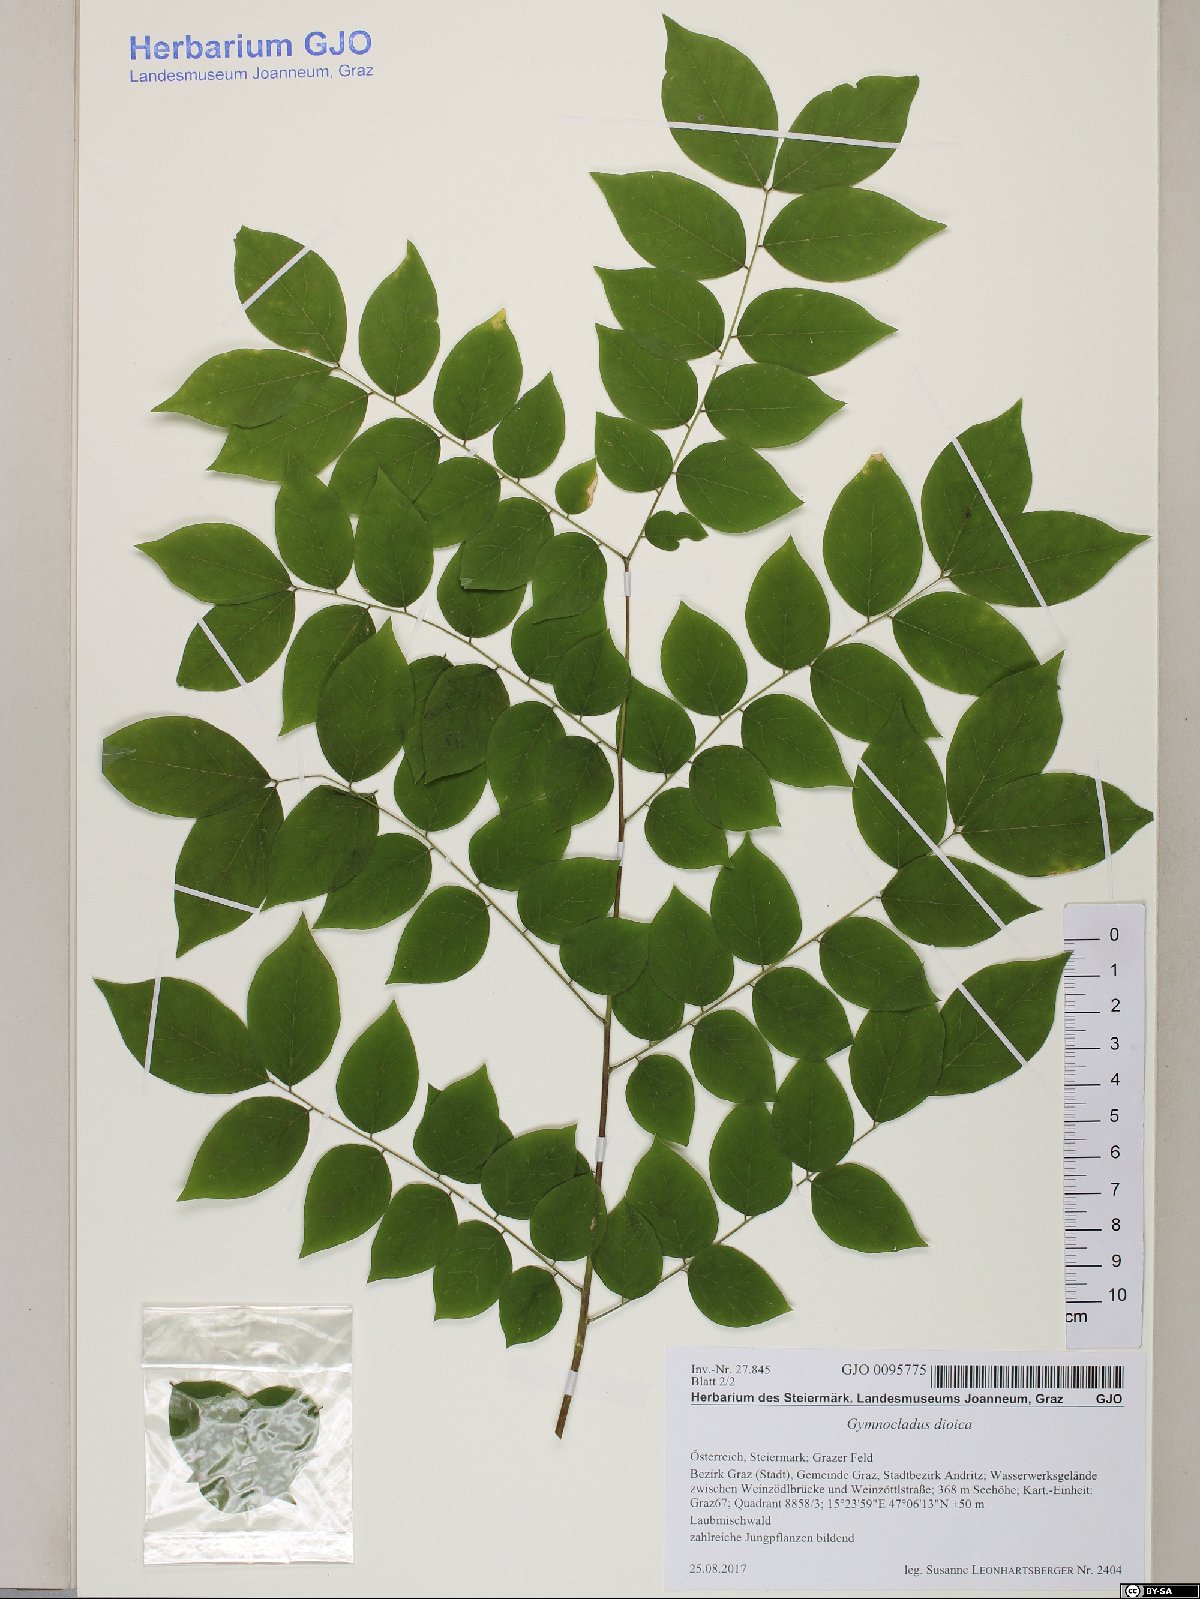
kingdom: Plantae
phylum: Tracheophyta
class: Magnoliopsida
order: Fabales
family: Fabaceae
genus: Gymnocladus
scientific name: Gymnocladus dioicus
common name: Kentucky coffee-tree
